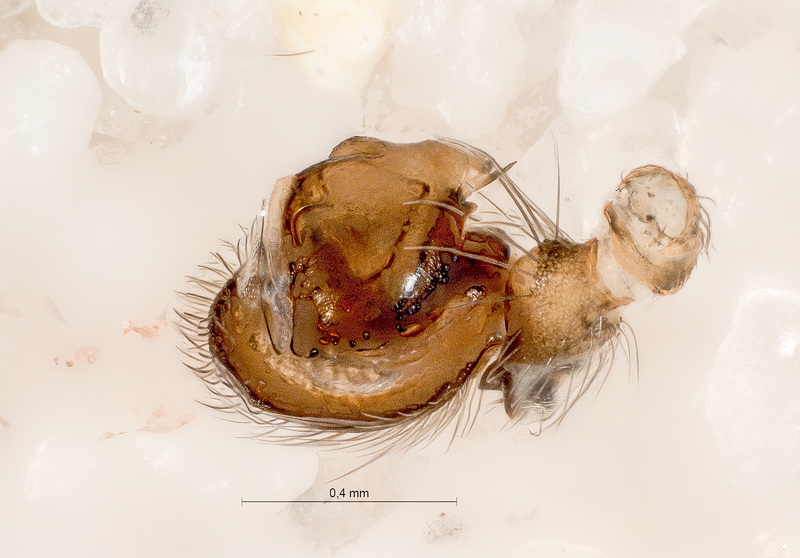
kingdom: Animalia
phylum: Arthropoda
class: Arachnida
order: Araneae
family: Titanoecidae
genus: Titanoeca
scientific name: Titanoeca spominima
